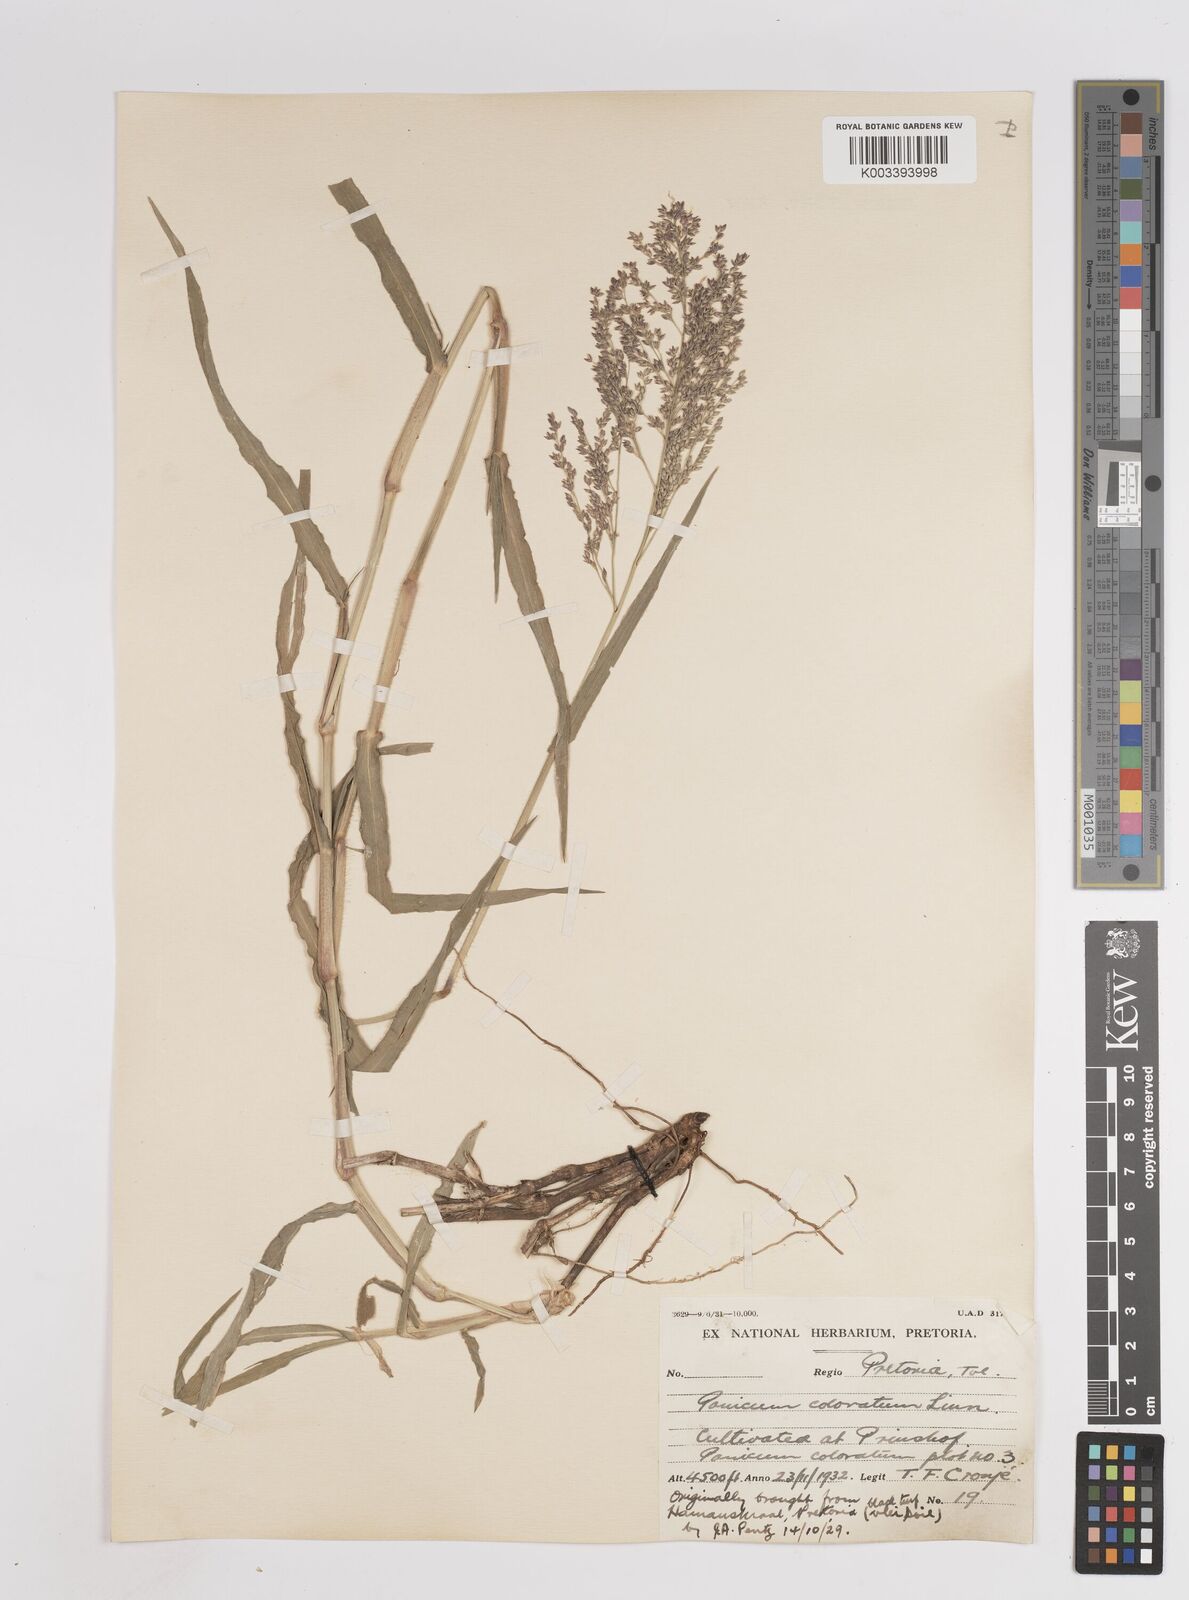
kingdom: Plantae
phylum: Tracheophyta
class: Liliopsida
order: Poales
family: Poaceae
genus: Panicum
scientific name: Panicum coloratum
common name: Kleingrass
